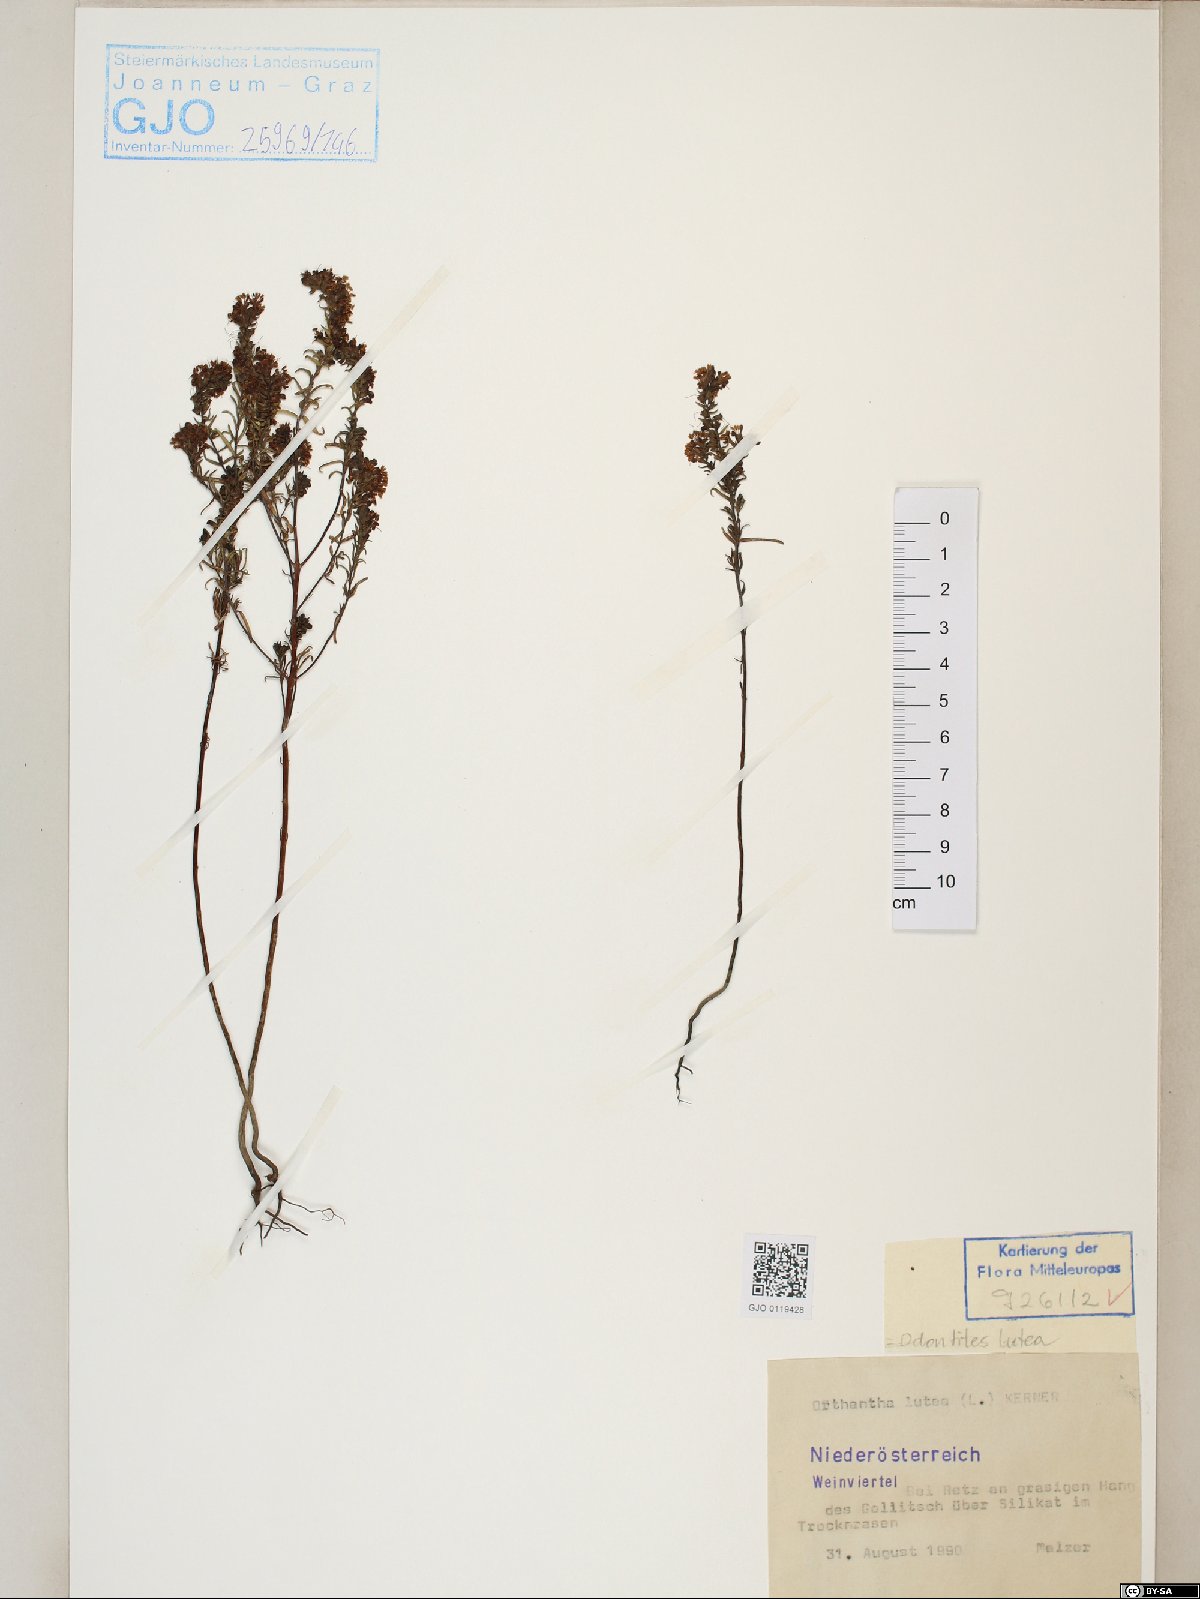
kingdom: Plantae
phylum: Tracheophyta
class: Magnoliopsida
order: Lamiales
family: Orobanchaceae
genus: Odontites
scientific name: Odontites luteus
